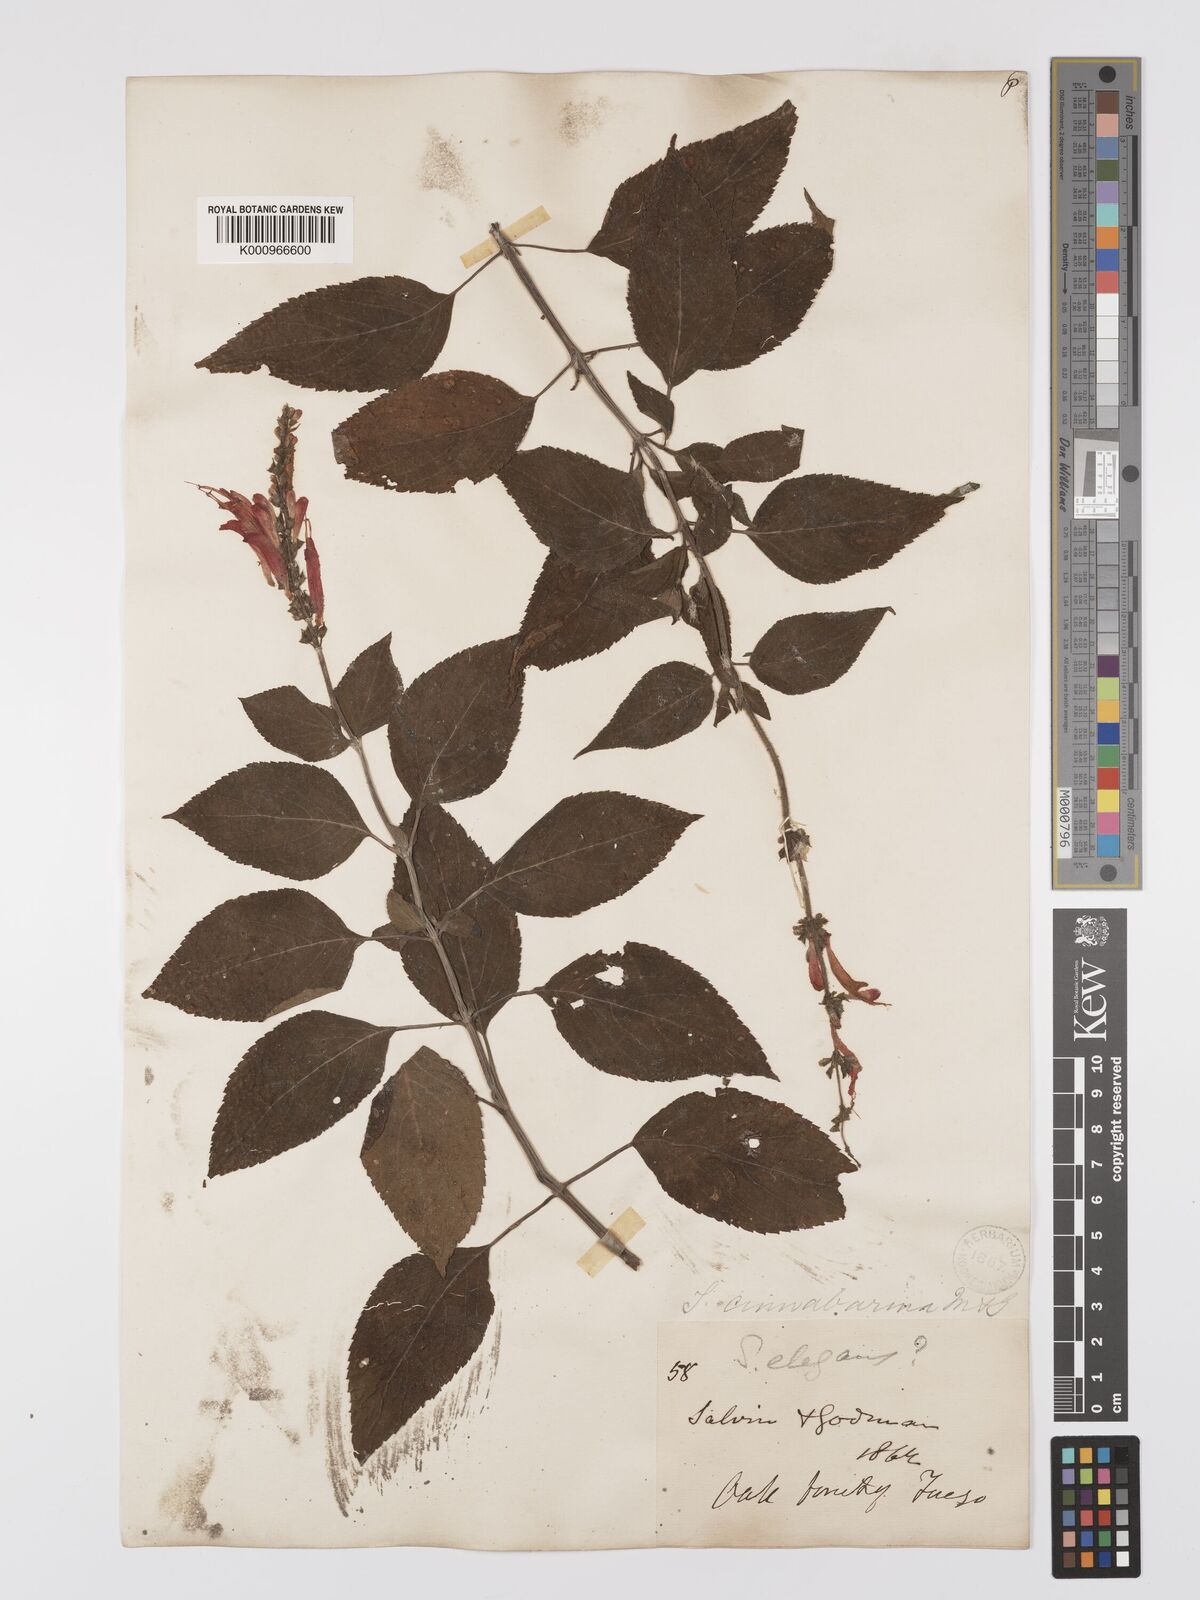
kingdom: Plantae
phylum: Tracheophyta
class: Magnoliopsida
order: Lamiales
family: Lamiaceae
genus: Salvia
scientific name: Salvia cinnabarina
